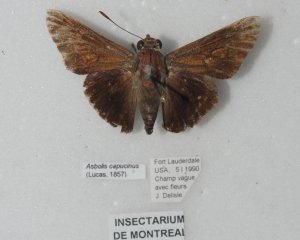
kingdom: Animalia
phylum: Arthropoda
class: Insecta
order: Lepidoptera
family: Hesperiidae
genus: Asbolis
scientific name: Asbolis capucinus
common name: Monk Skipper
